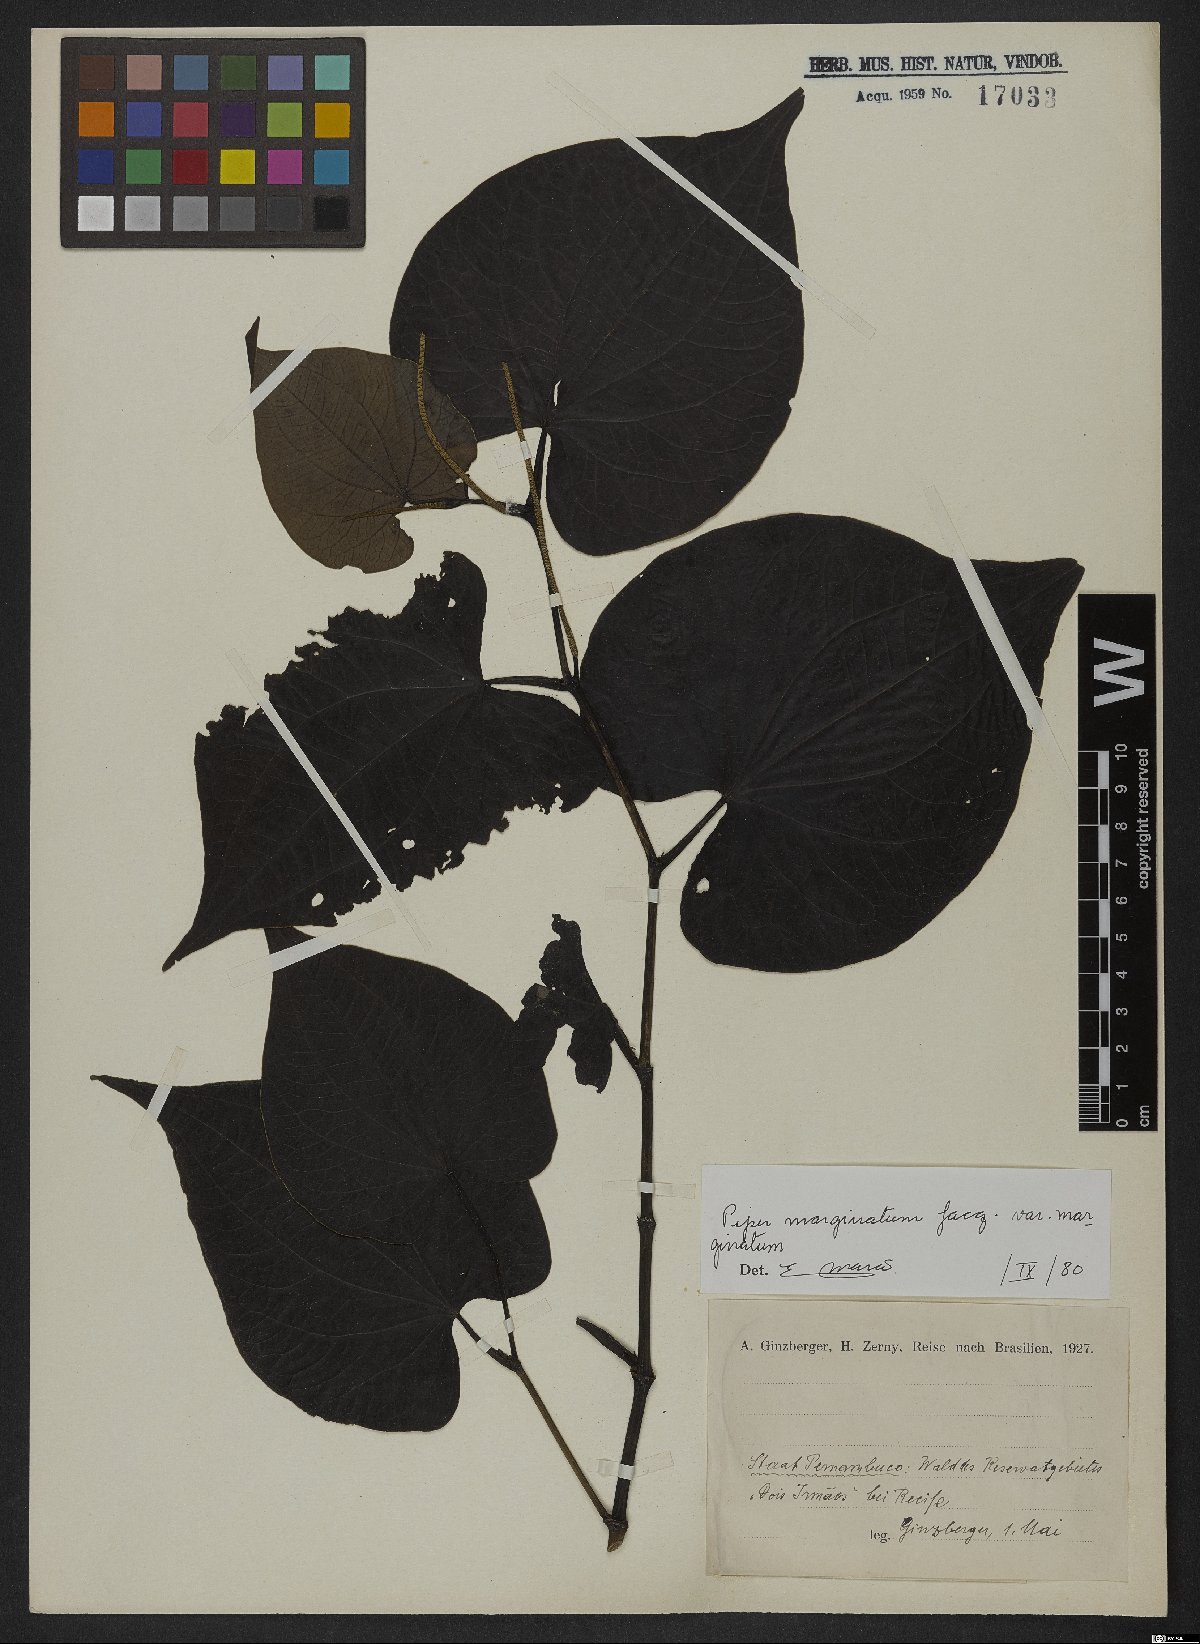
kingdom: Plantae
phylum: Tracheophyta
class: Magnoliopsida
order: Piperales
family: Piperaceae
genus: Piper
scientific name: Piper marginatum
